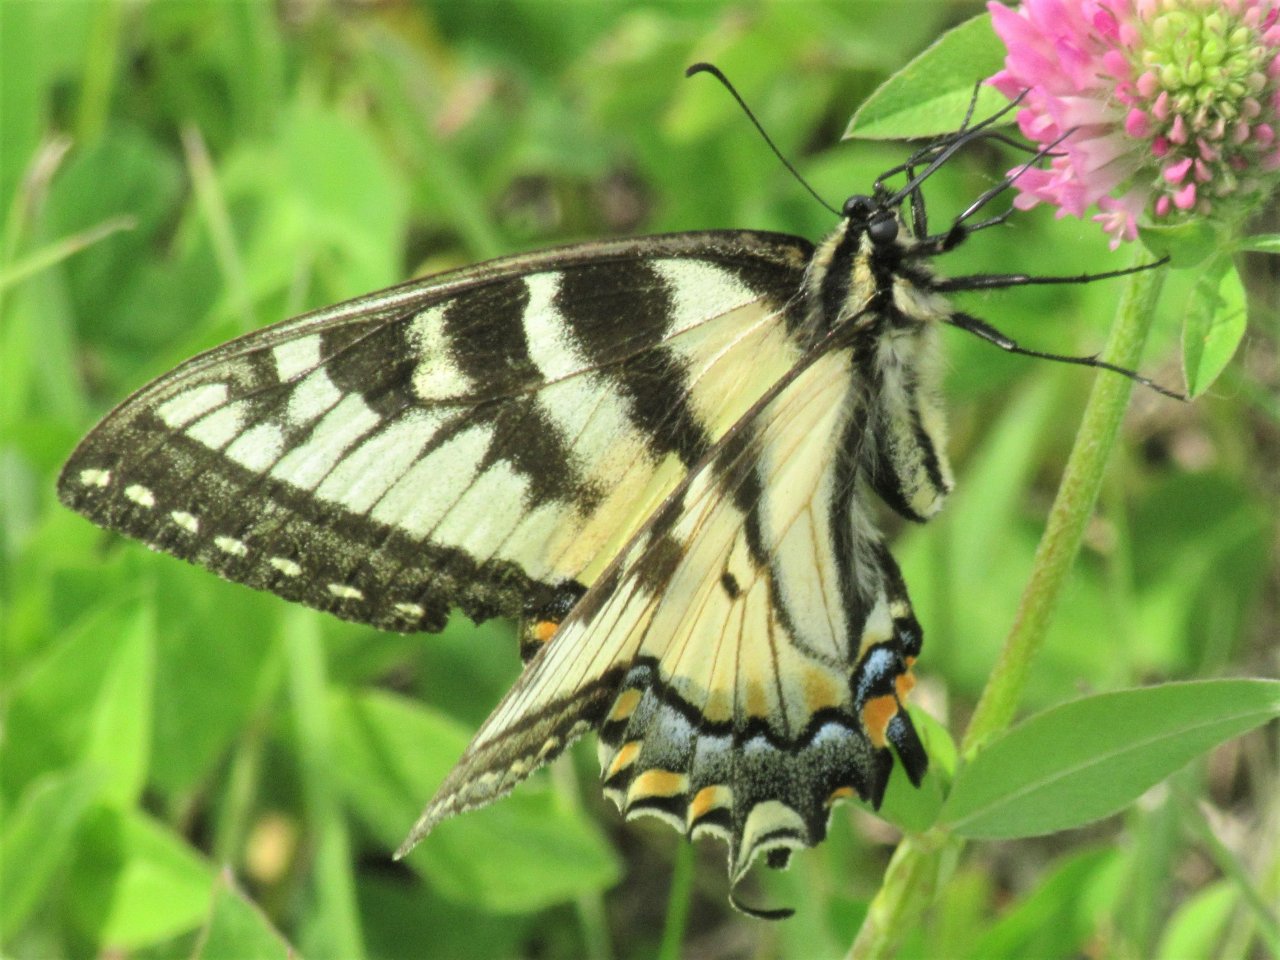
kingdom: Animalia
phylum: Arthropoda
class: Insecta
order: Lepidoptera
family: Papilionidae
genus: Pterourus
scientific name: Pterourus canadensis
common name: Canadian Tiger Swallowtail
